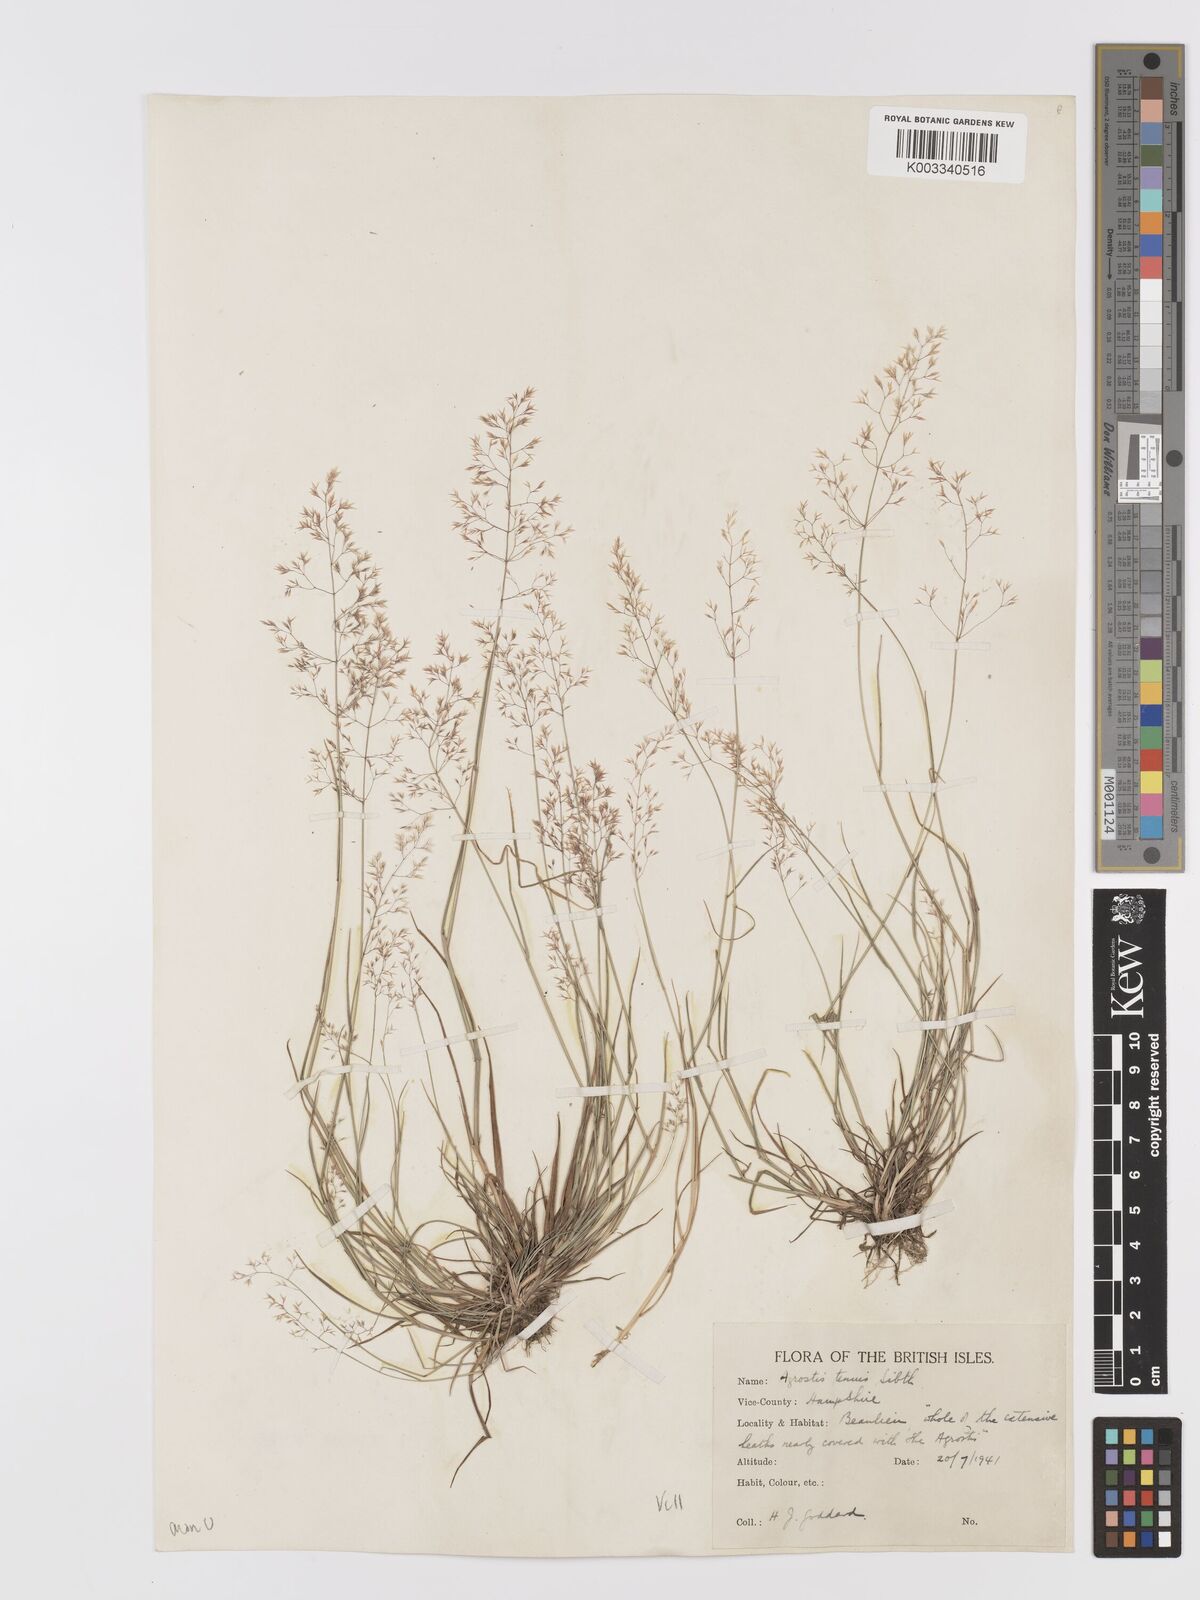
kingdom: Plantae
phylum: Tracheophyta
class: Liliopsida
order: Poales
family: Poaceae
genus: Agrostis
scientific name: Agrostis capillaris
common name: Colonial bentgrass
